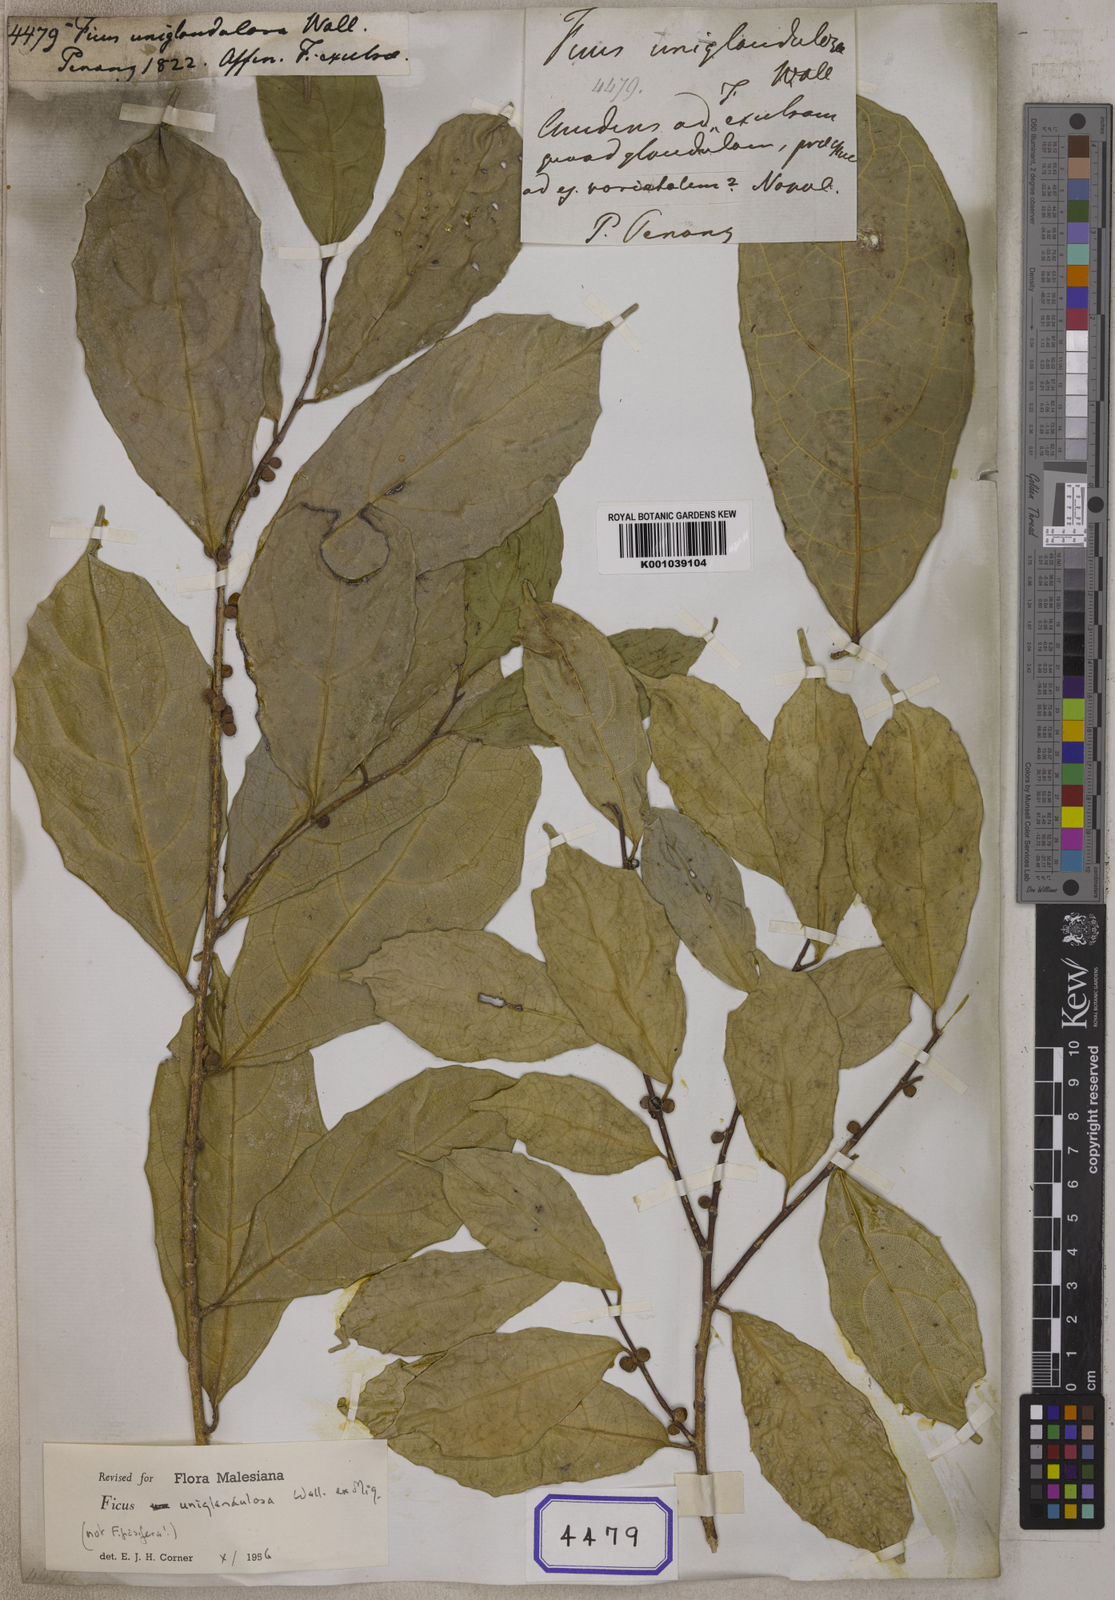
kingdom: Plantae
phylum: Tracheophyta
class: Magnoliopsida
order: Rosales
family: Moraceae
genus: Ficus
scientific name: Ficus uniglandulosa
